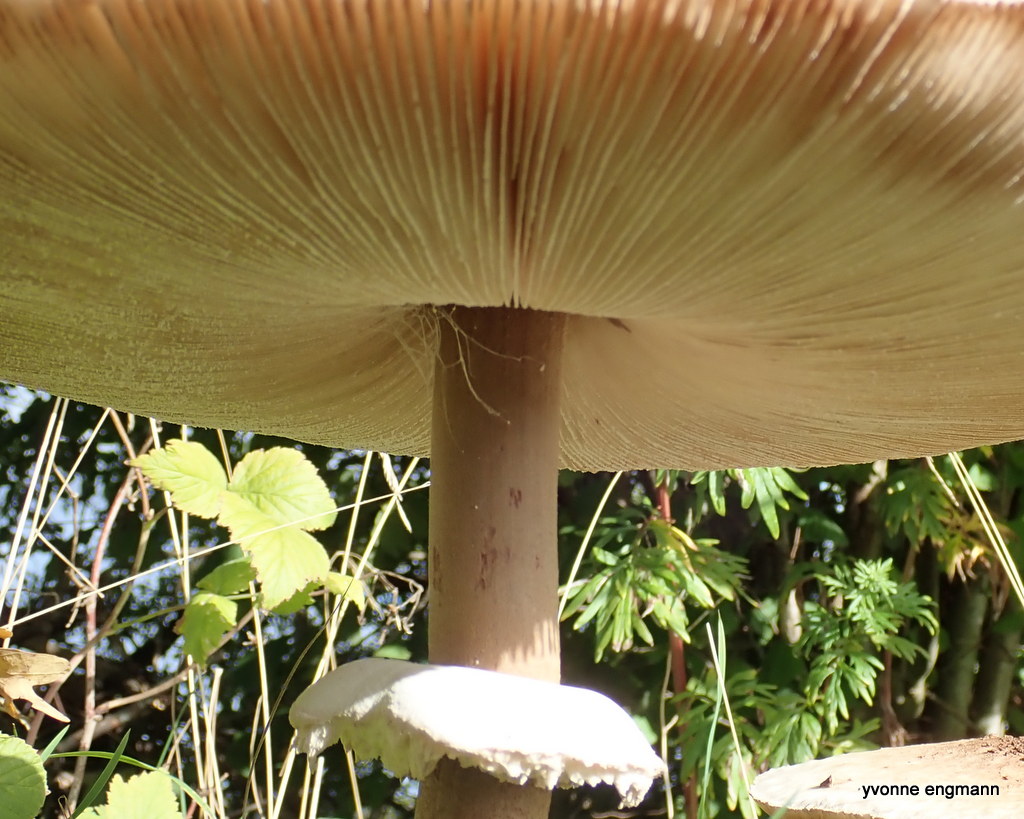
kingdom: Fungi
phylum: Basidiomycota
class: Agaricomycetes
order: Agaricales
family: Agaricaceae
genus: Macrolepiota
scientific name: Macrolepiota fuliginosa
